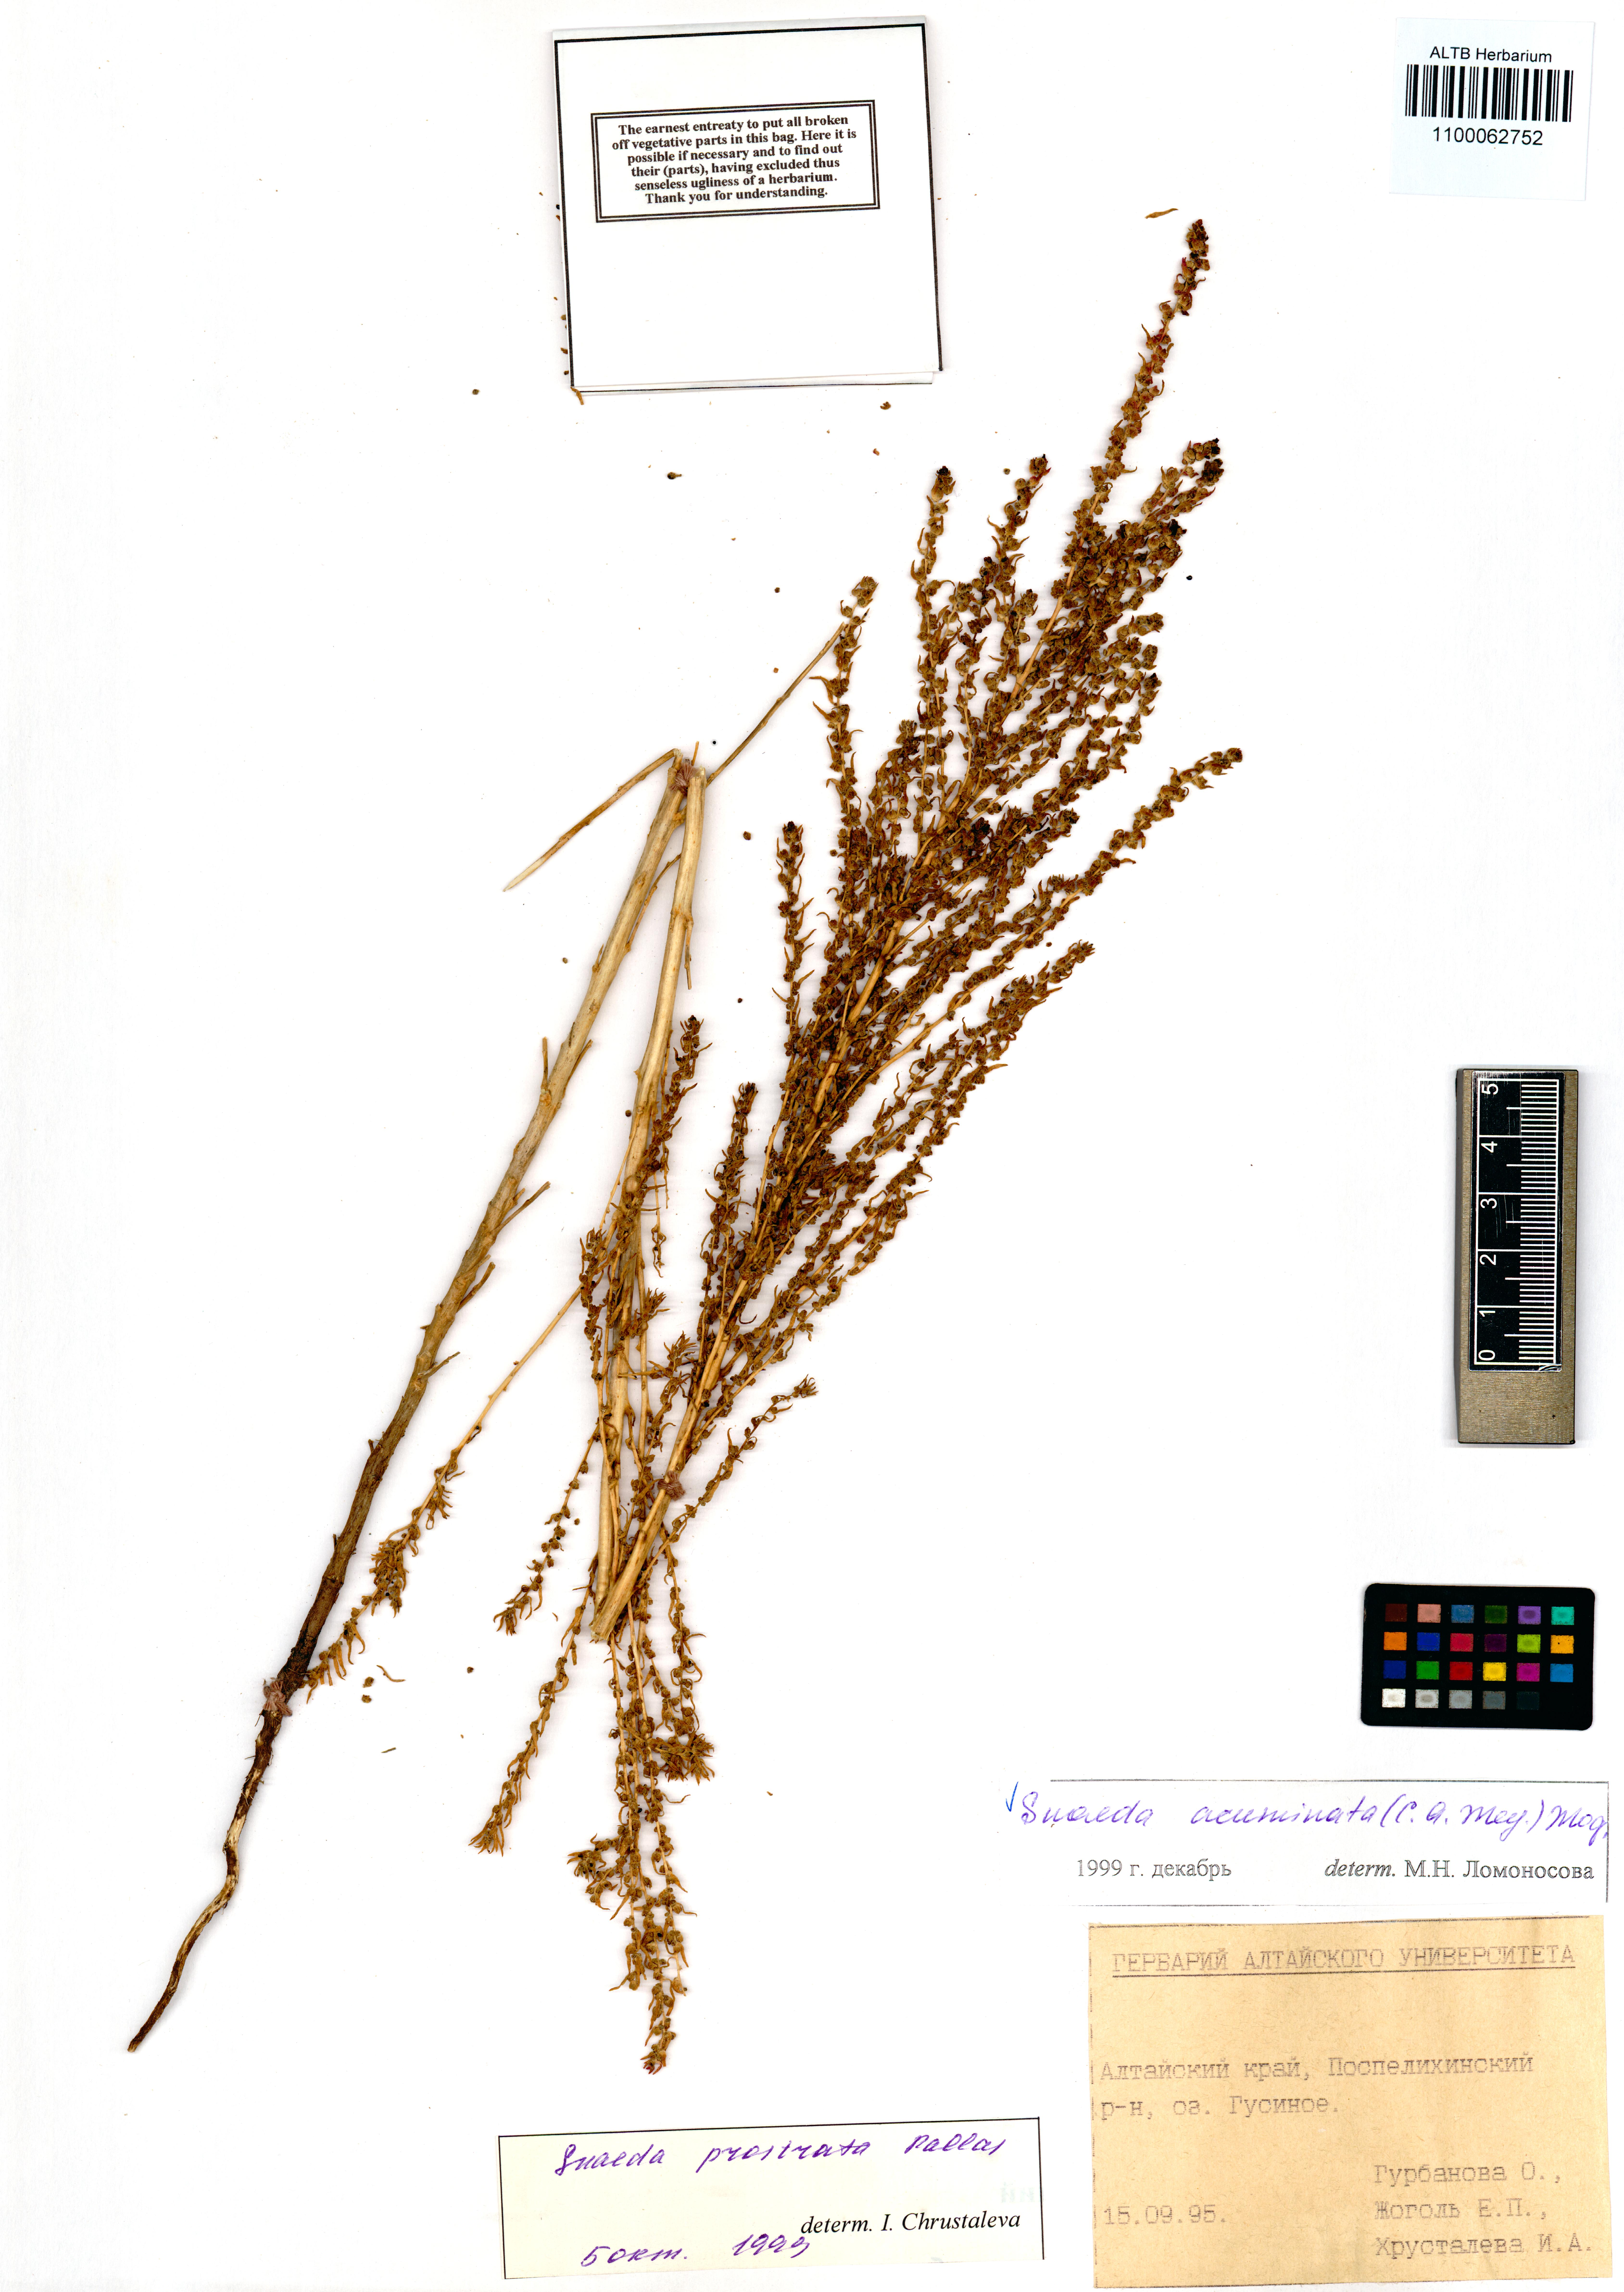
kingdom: Plantae
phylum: Tracheophyta
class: Magnoliopsida
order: Caryophyllales
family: Amaranthaceae
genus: Suaeda
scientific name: Suaeda acuminata
